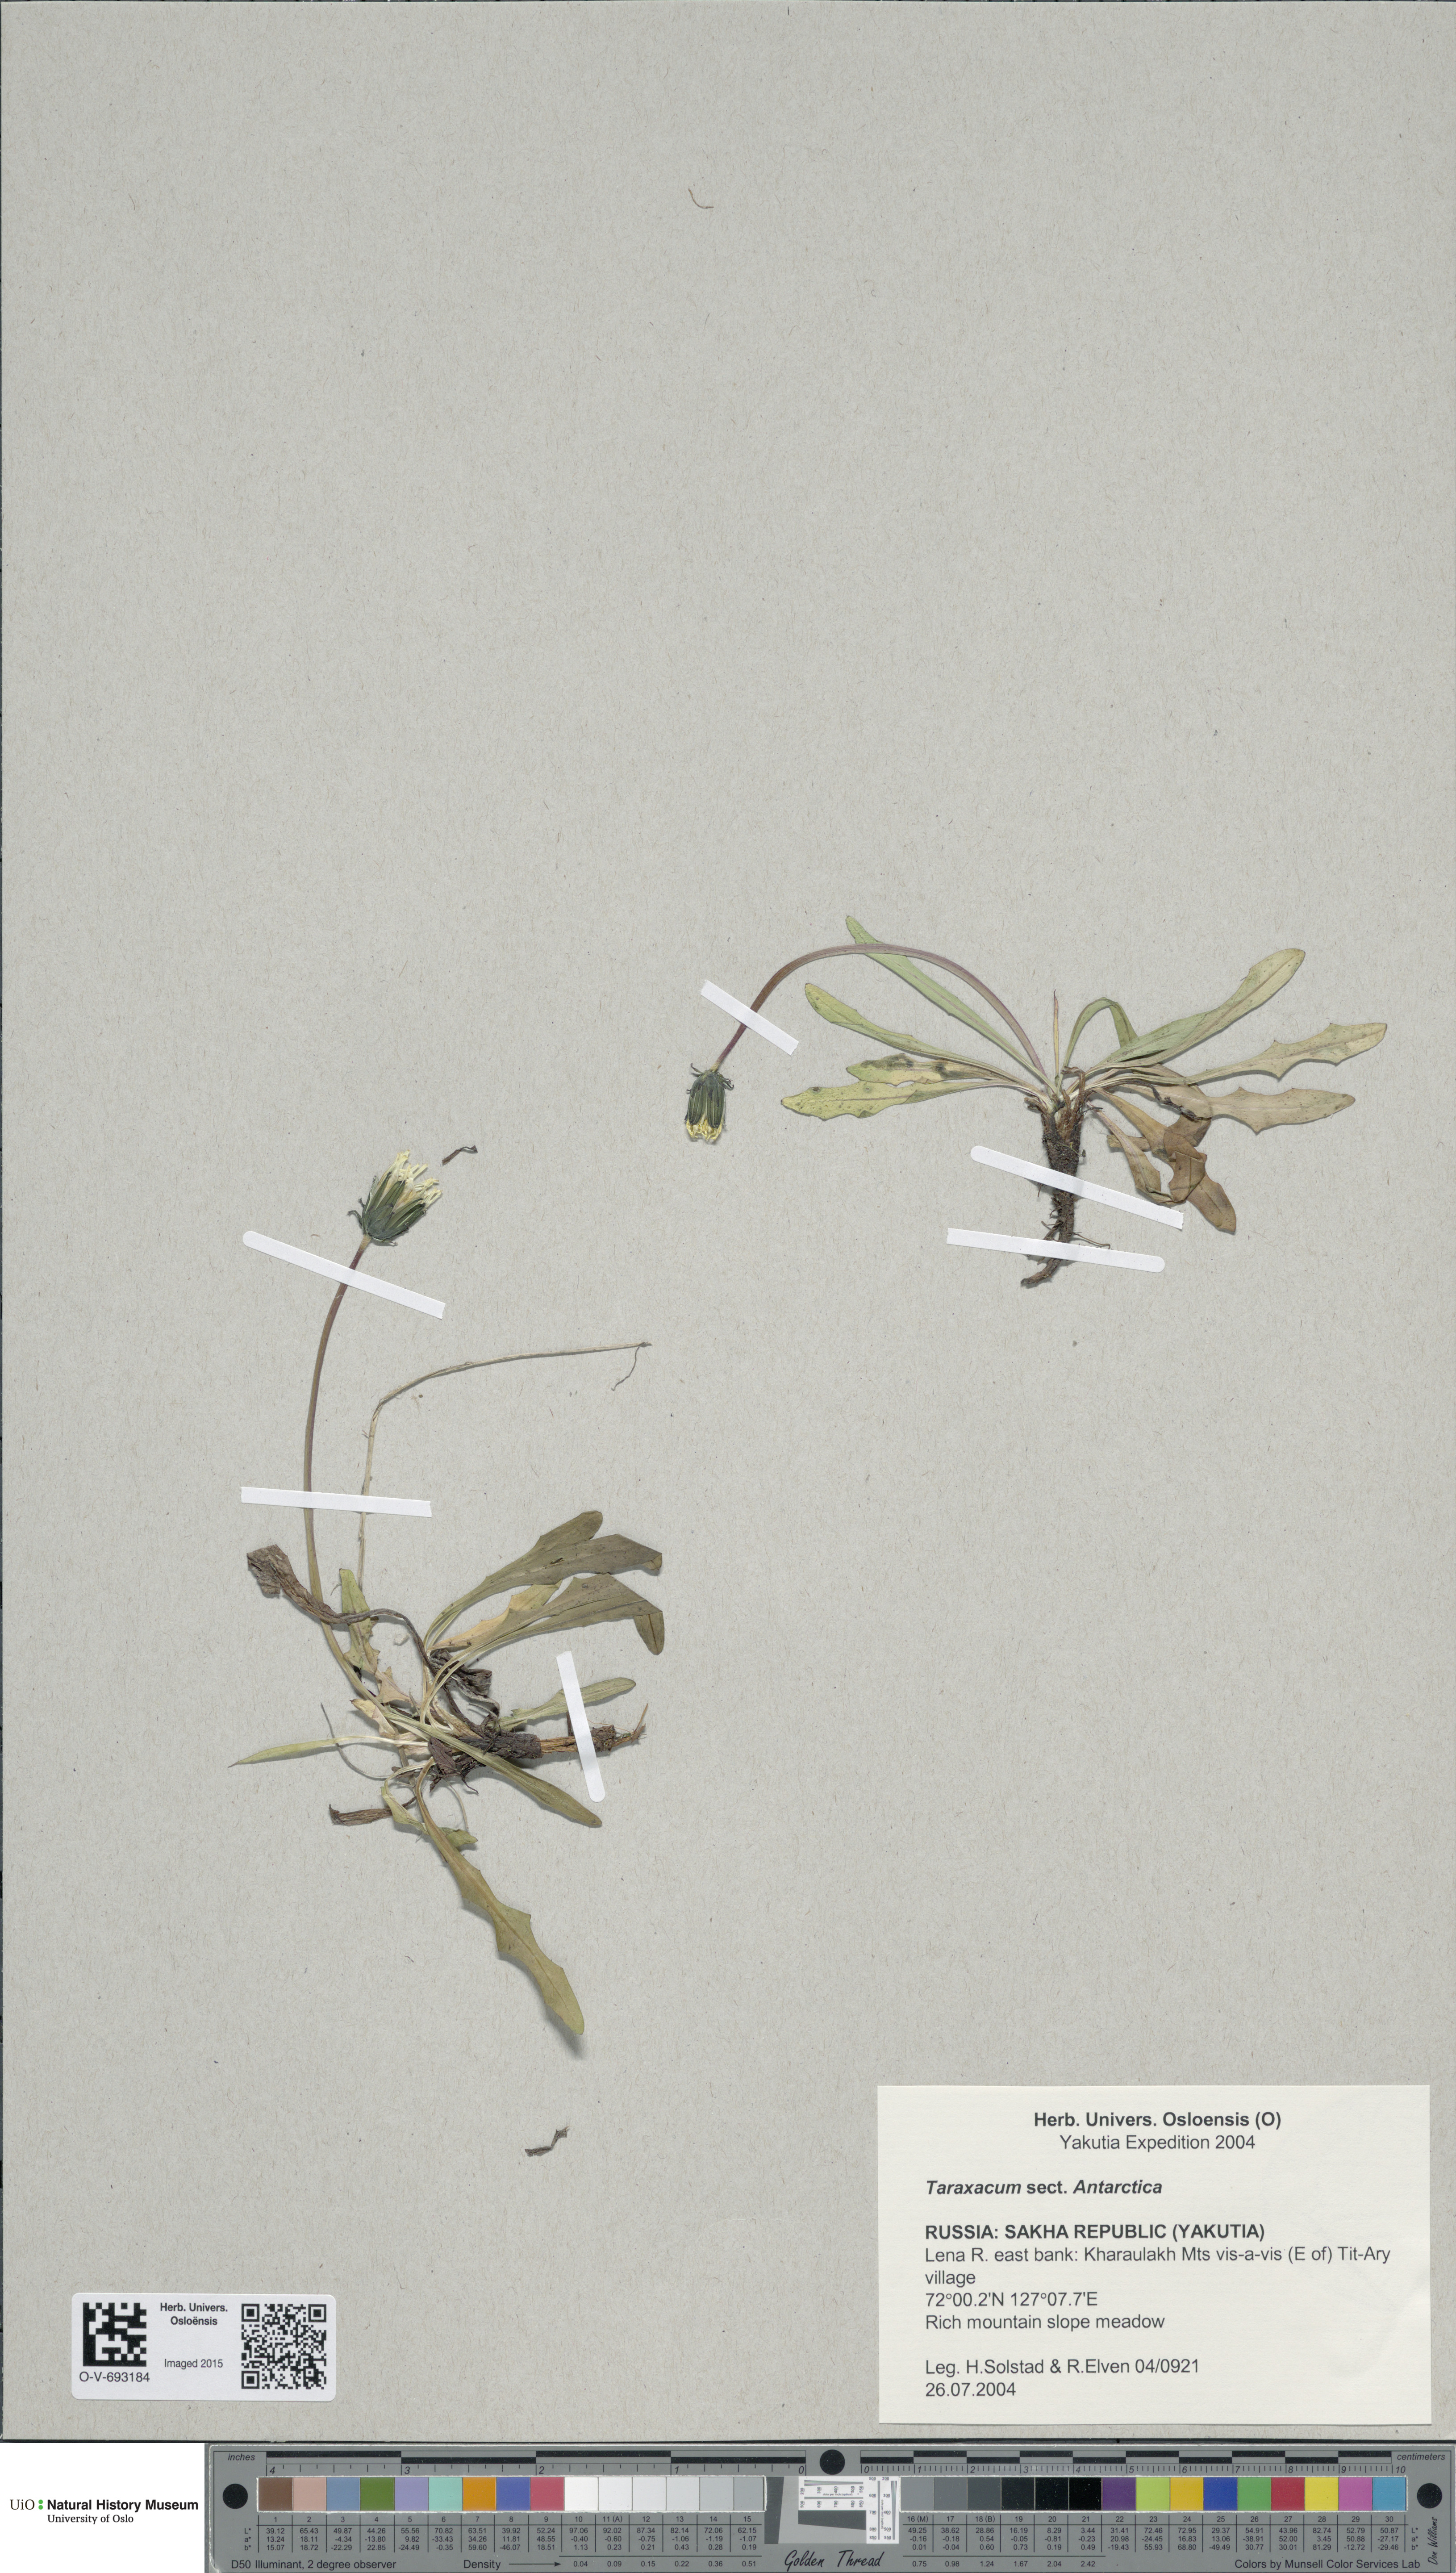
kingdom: Plantae
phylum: Tracheophyta
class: Magnoliopsida
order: Asterales
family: Asteraceae
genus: Taraxacum
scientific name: Taraxacum
